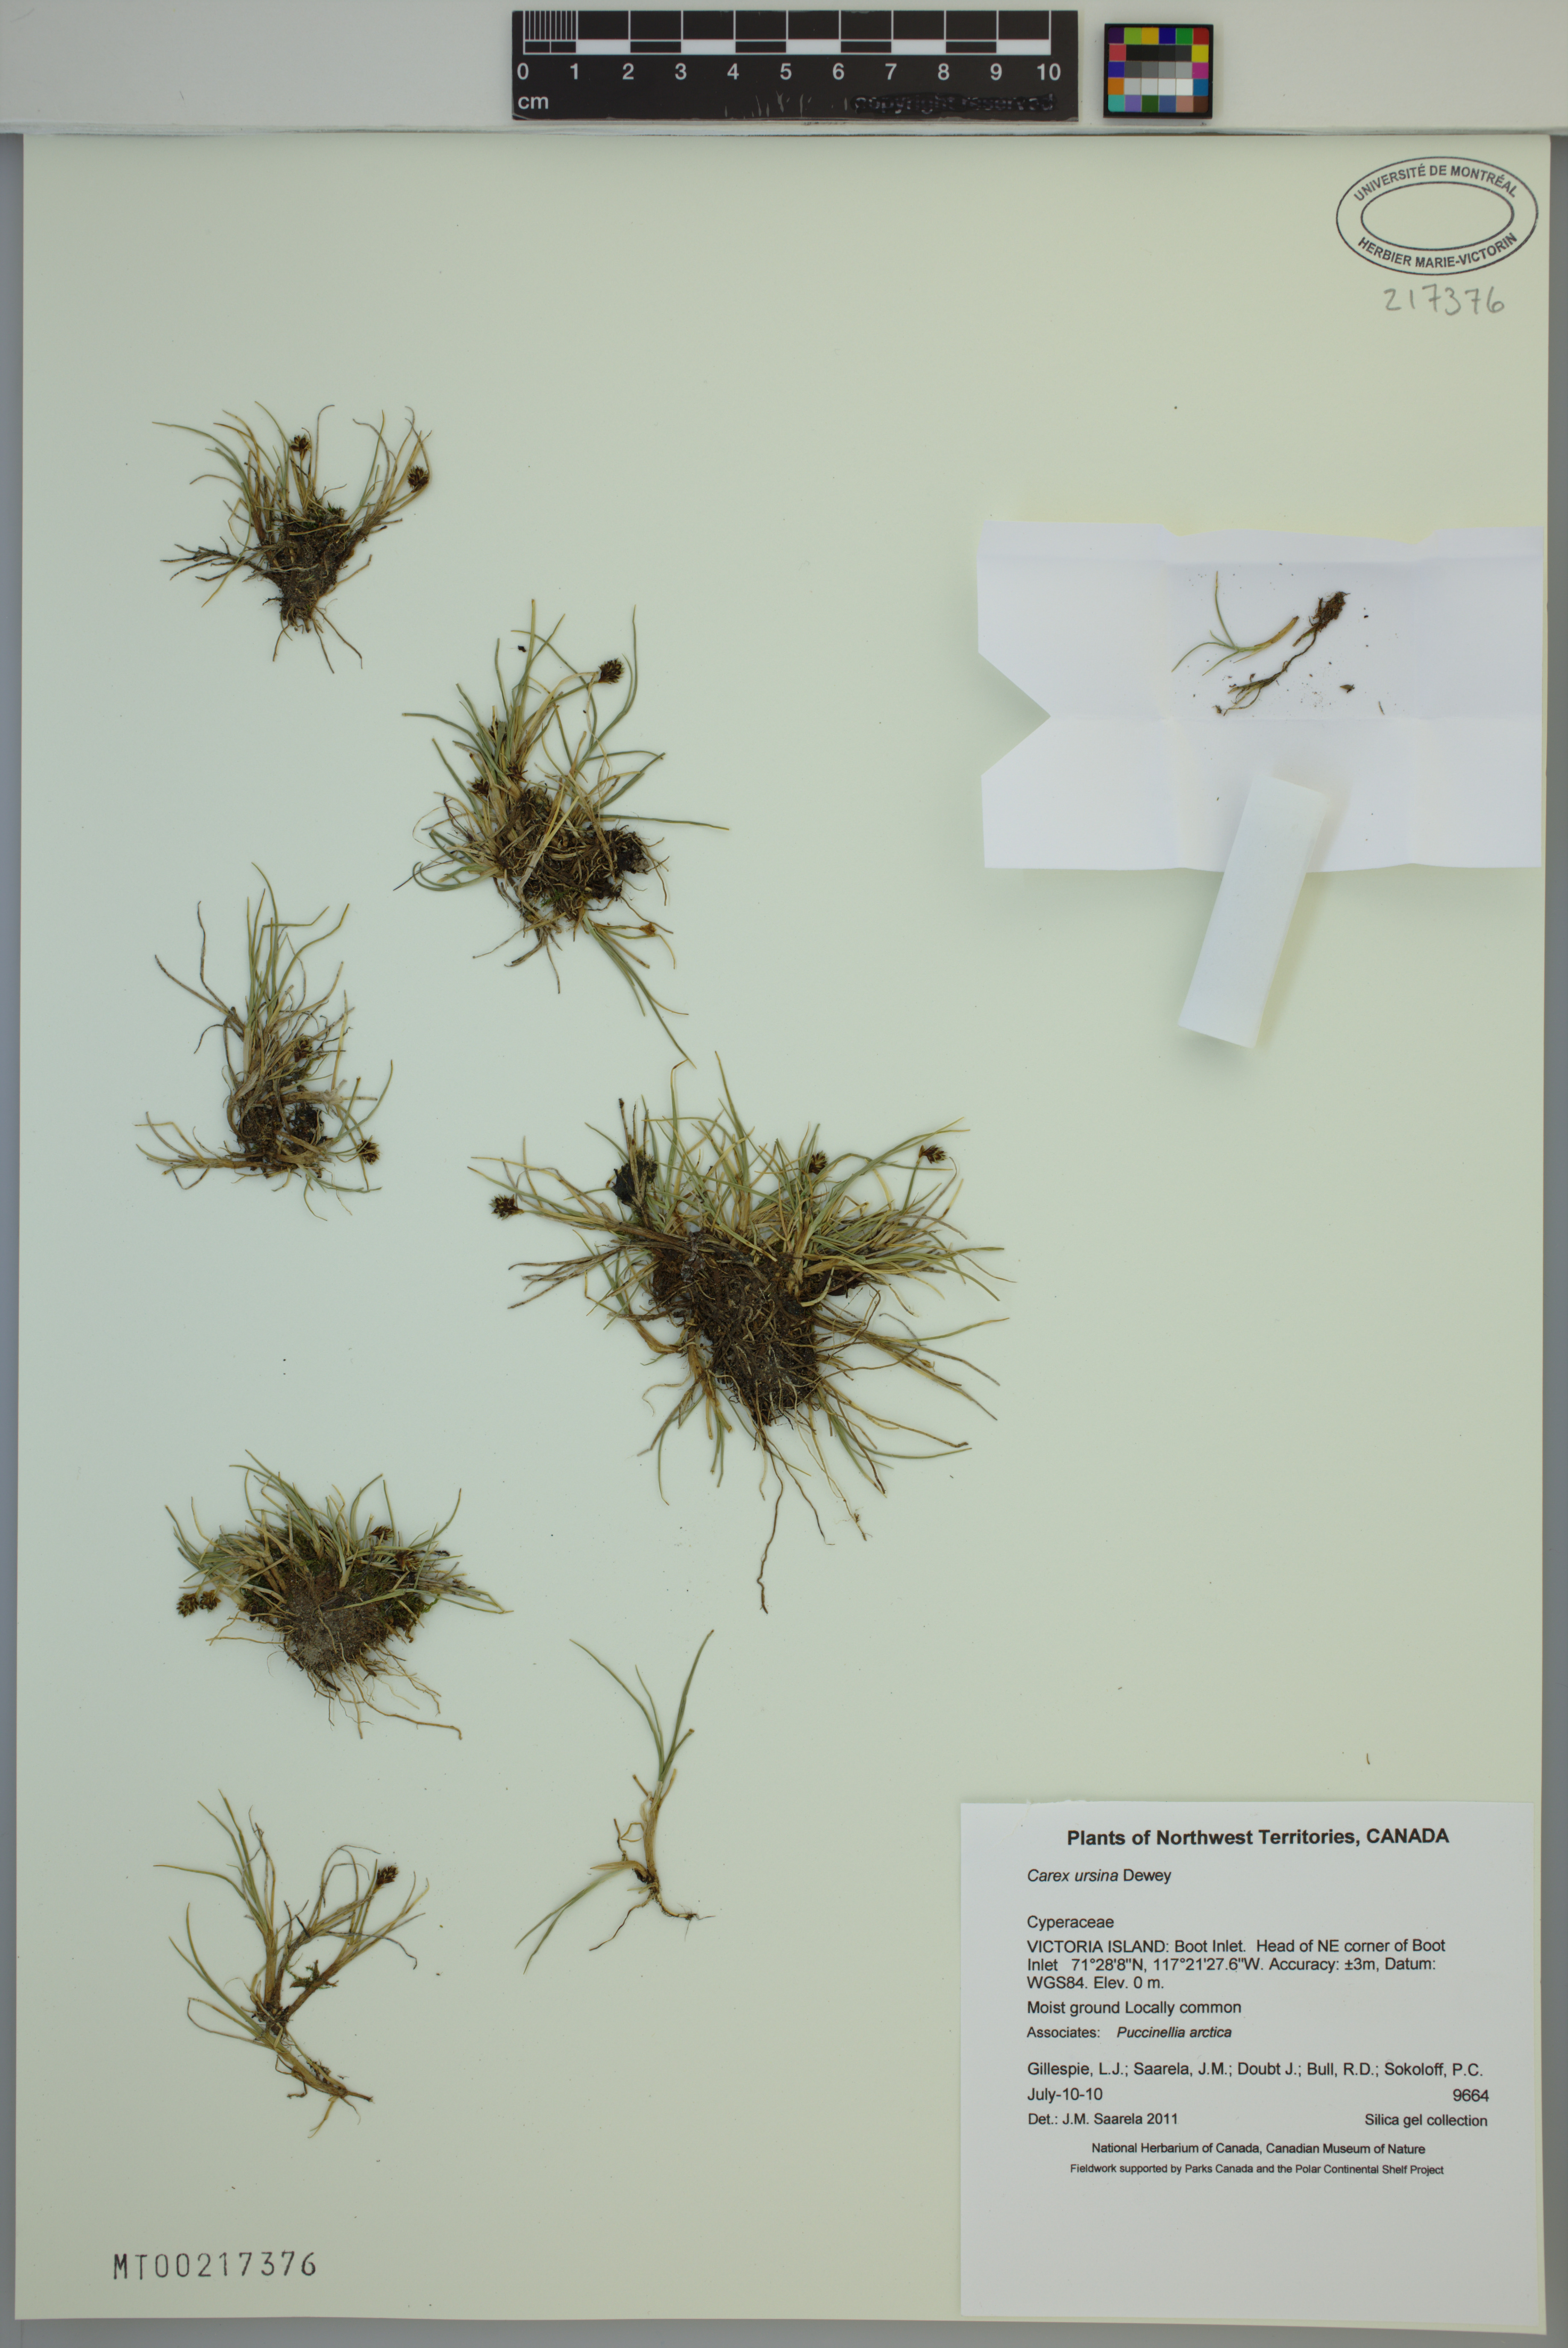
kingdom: Plantae
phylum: Tracheophyta
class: Liliopsida
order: Poales
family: Cyperaceae
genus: Carex
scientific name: Carex ursina
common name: Bear sedge
